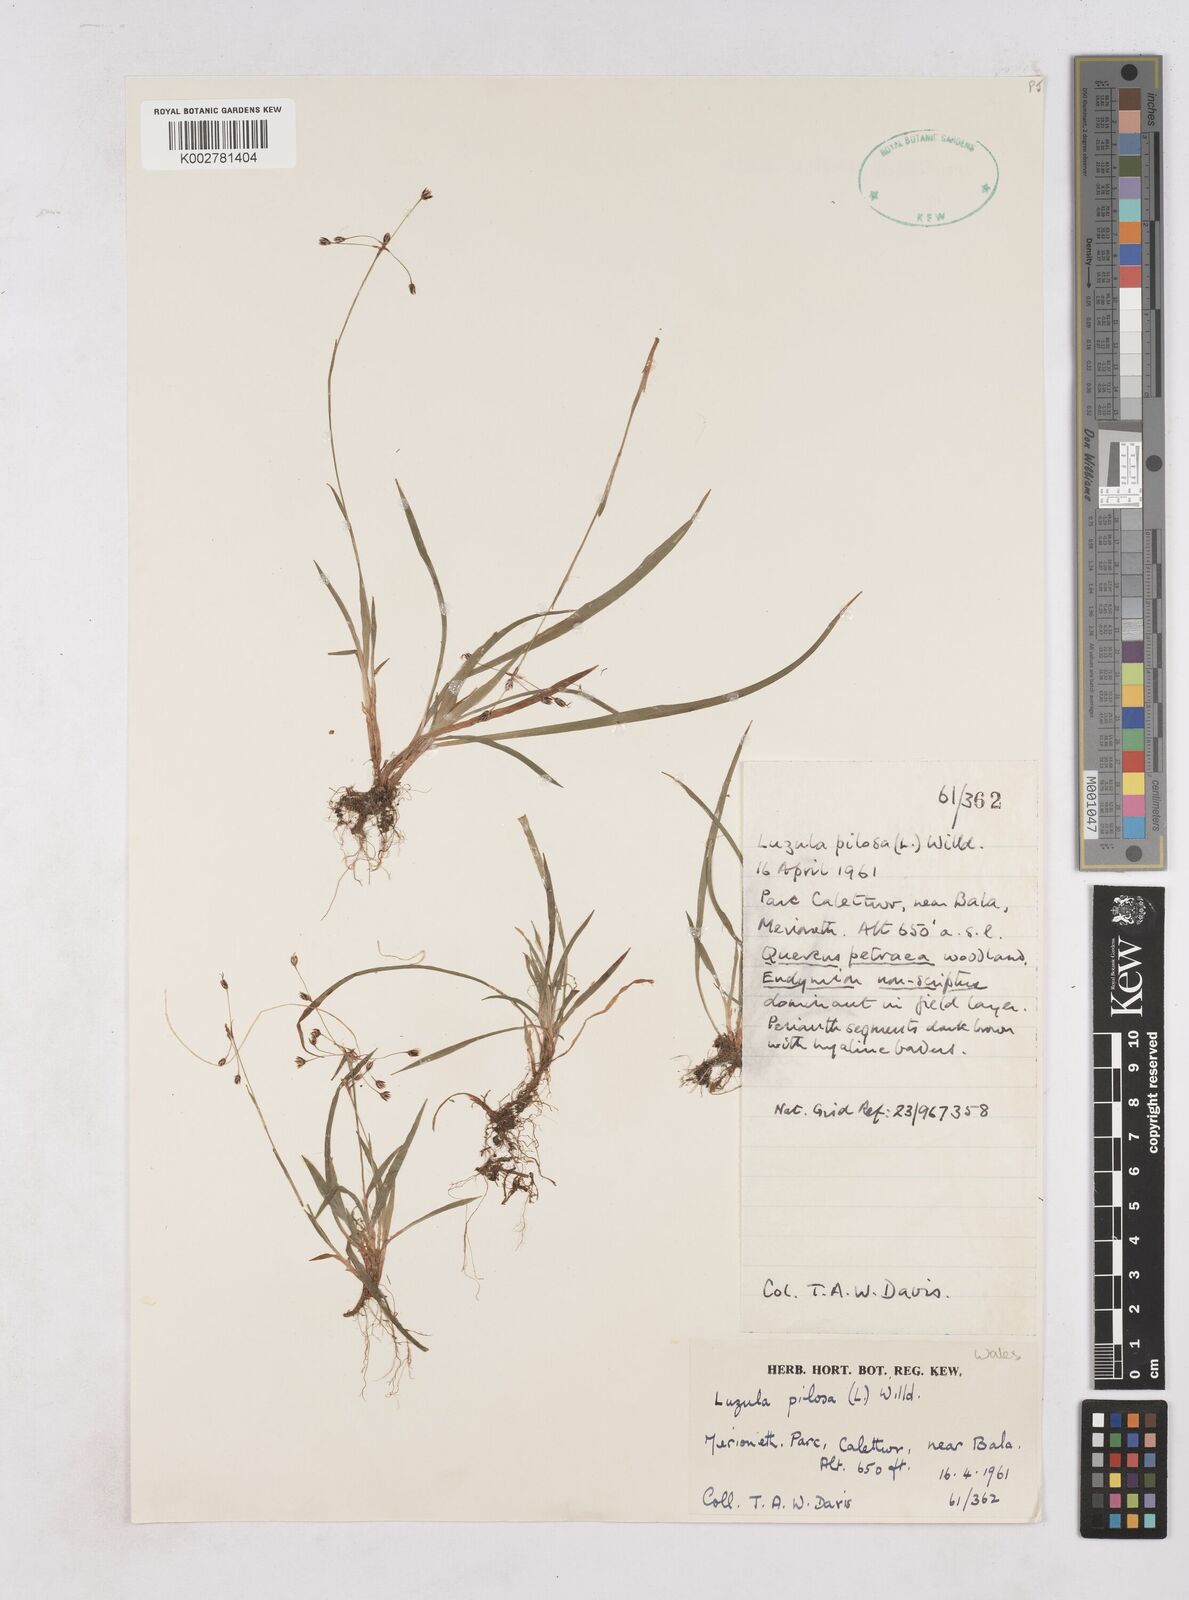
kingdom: Plantae
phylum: Tracheophyta
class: Liliopsida
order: Poales
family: Juncaceae
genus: Luzula
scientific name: Luzula pilosa
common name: Hairy wood-rush
